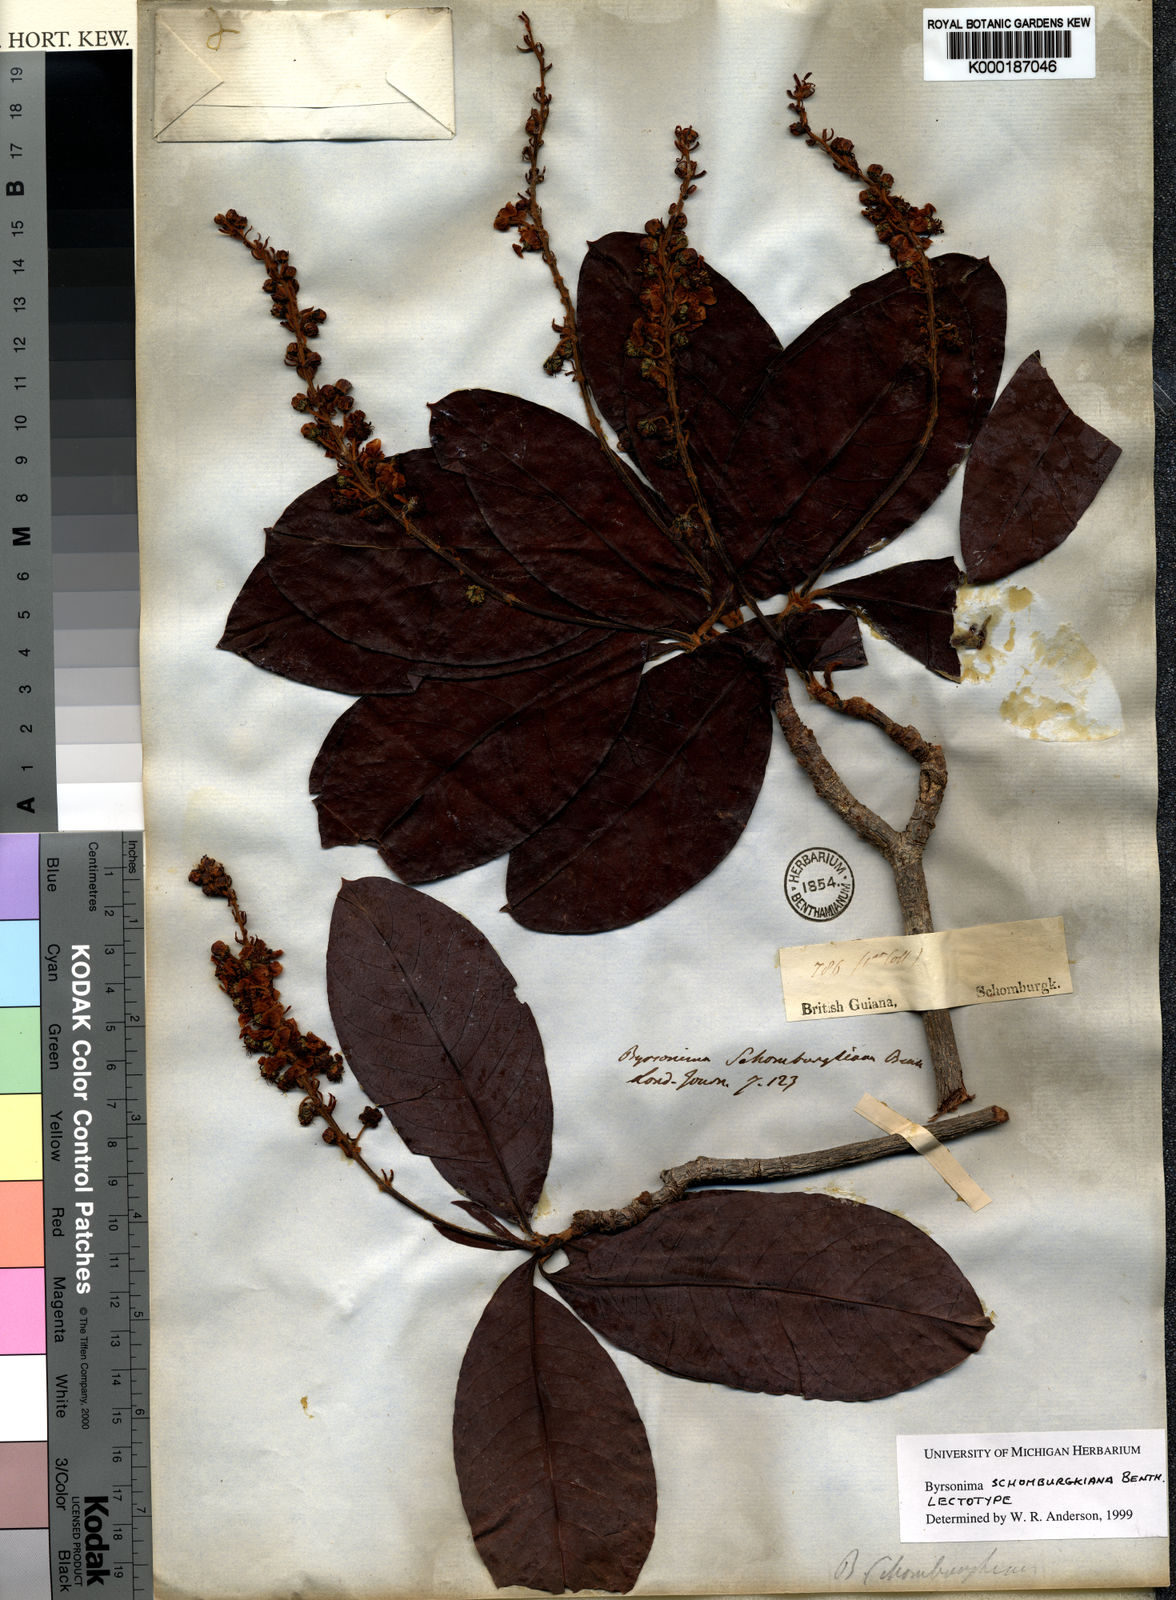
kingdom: Plantae
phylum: Tracheophyta
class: Magnoliopsida
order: Malpighiales
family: Malpighiaceae
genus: Byrsonima
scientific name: Byrsonima schomburgkiana
